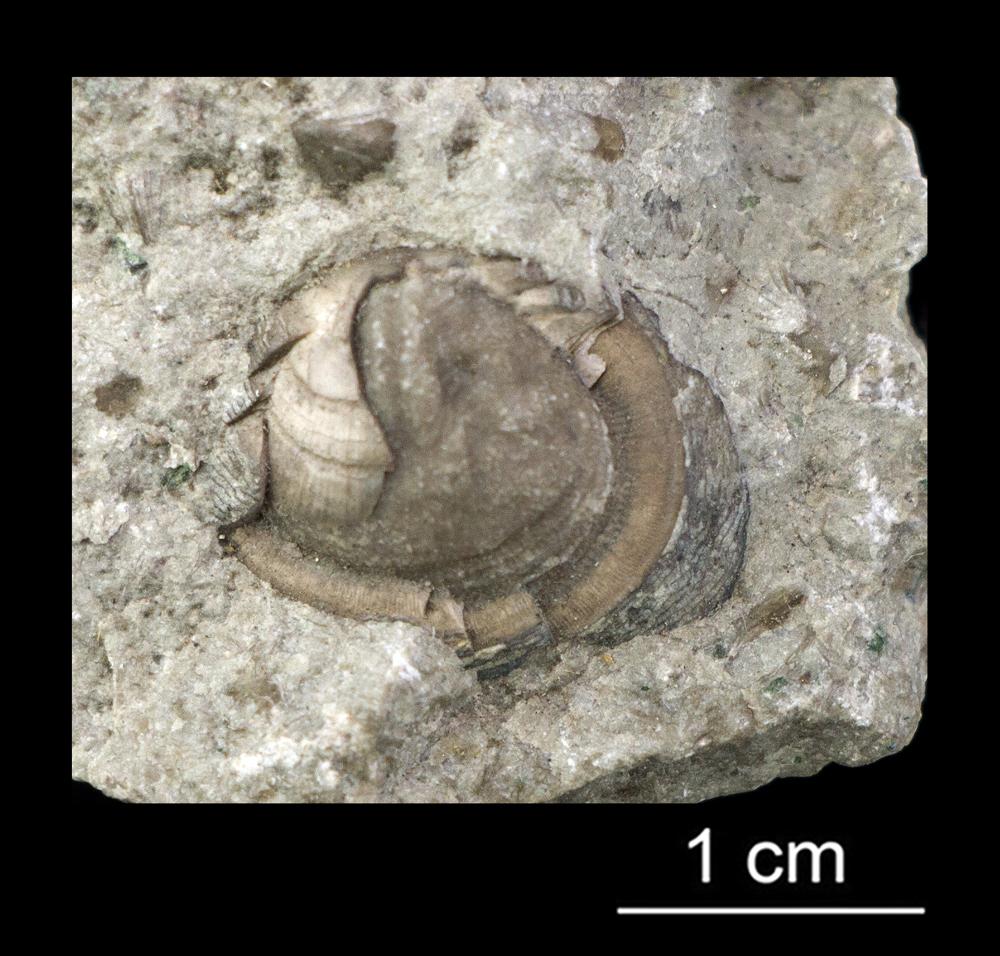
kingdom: Animalia
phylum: Brachiopoda
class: Lingulata
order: Lingulida
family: Zhanatellidae
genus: Thysanotos
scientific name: Thysanotos
